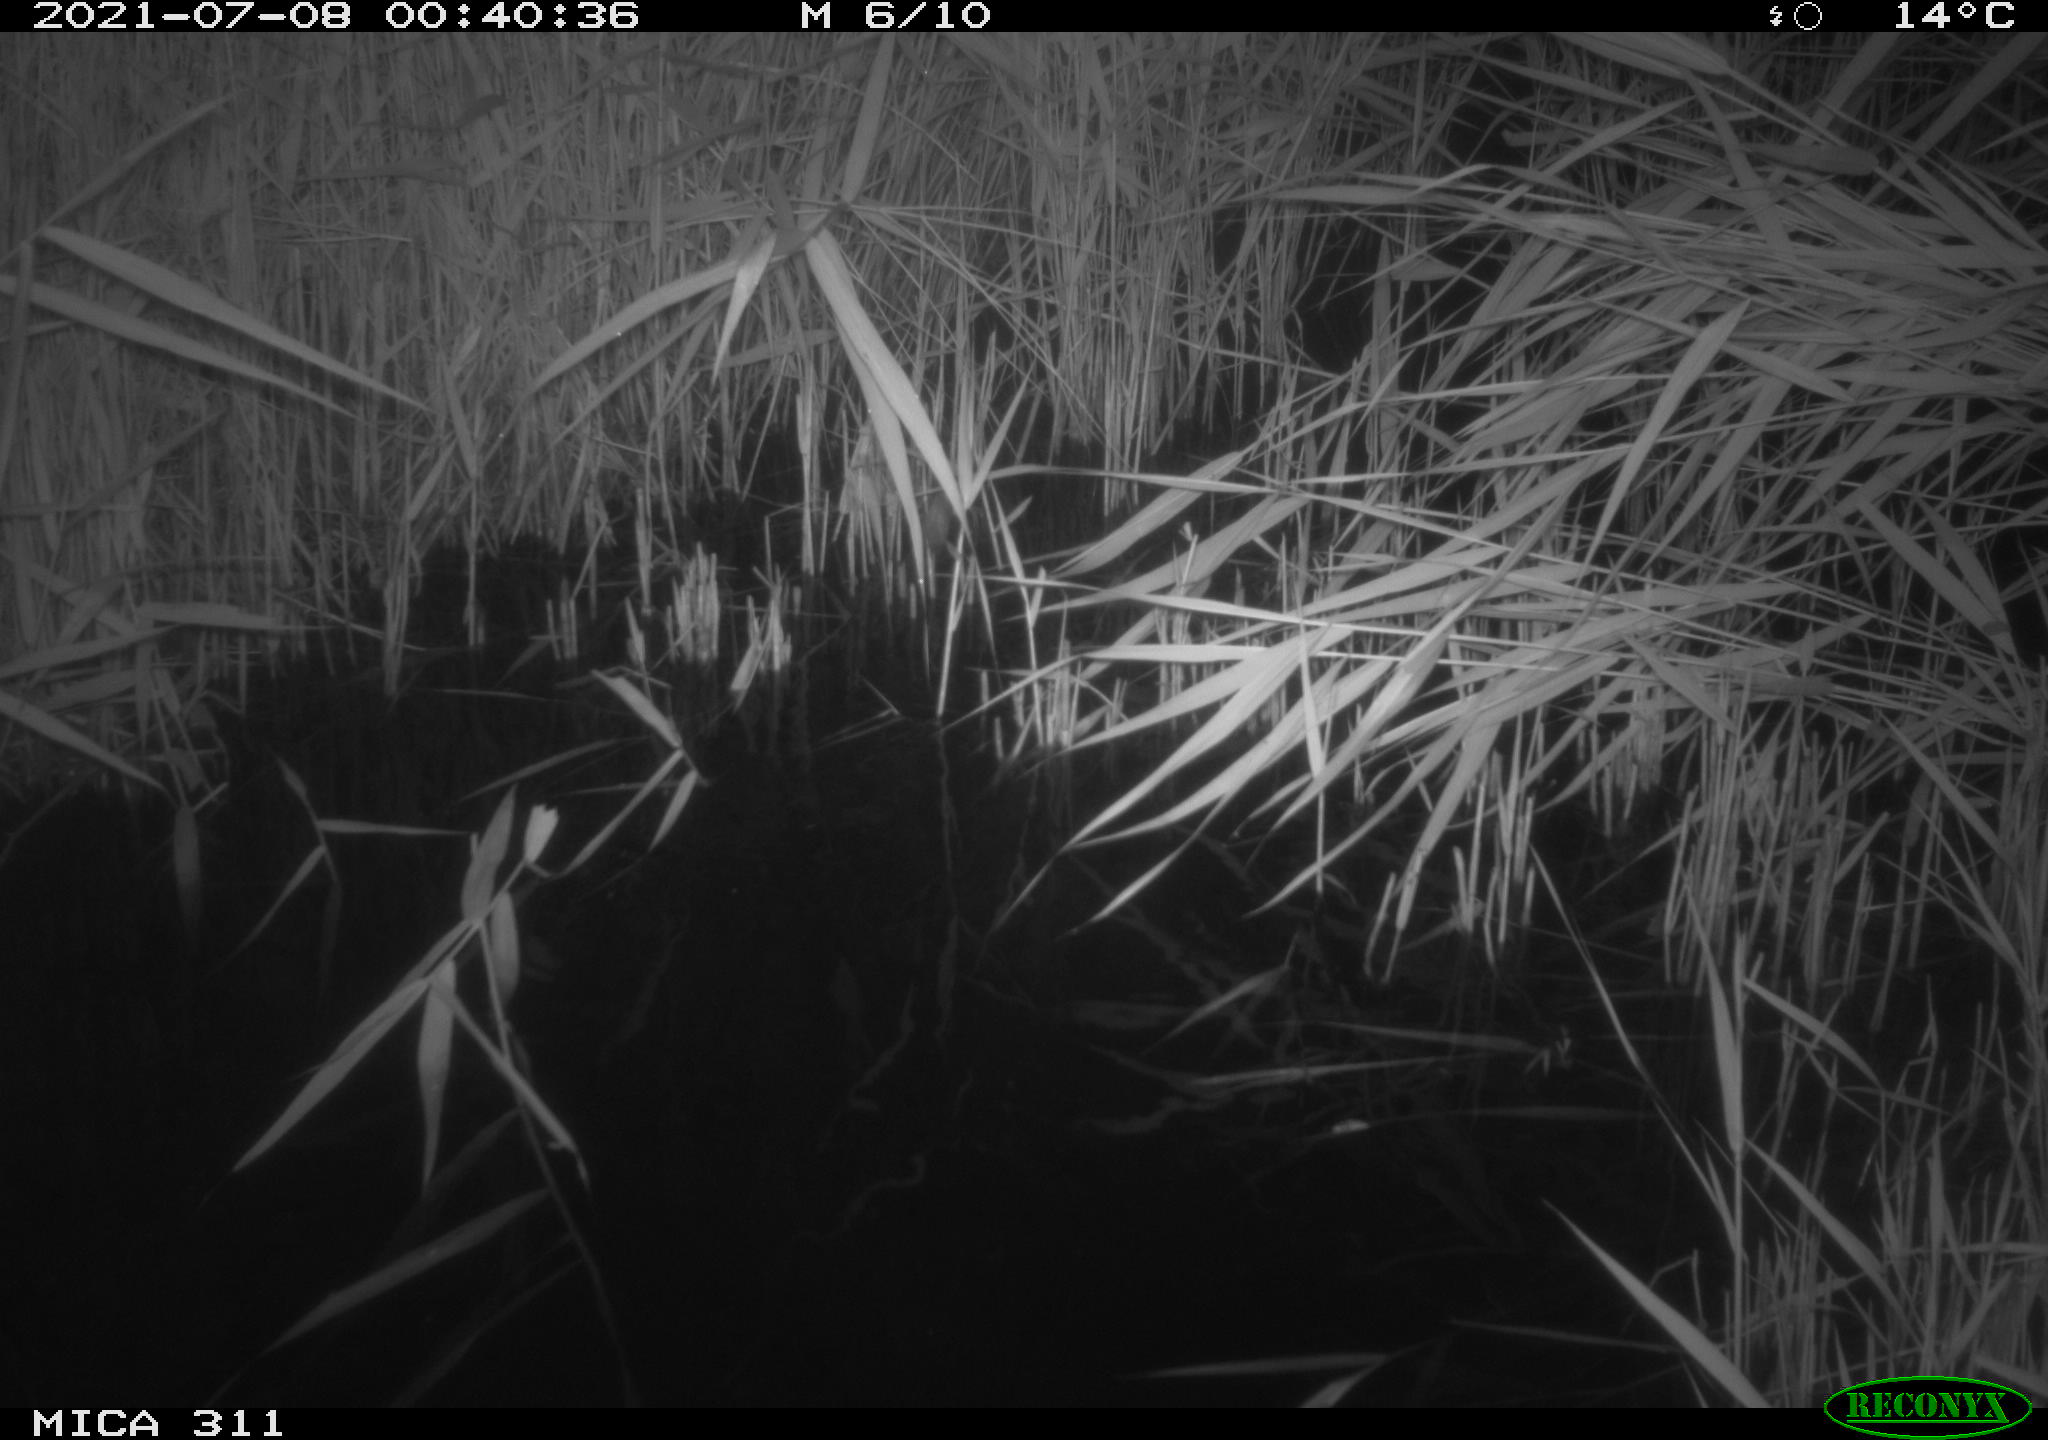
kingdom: Animalia
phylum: Chordata
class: Mammalia
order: Rodentia
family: Muridae
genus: Rattus
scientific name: Rattus norvegicus
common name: Brown rat
